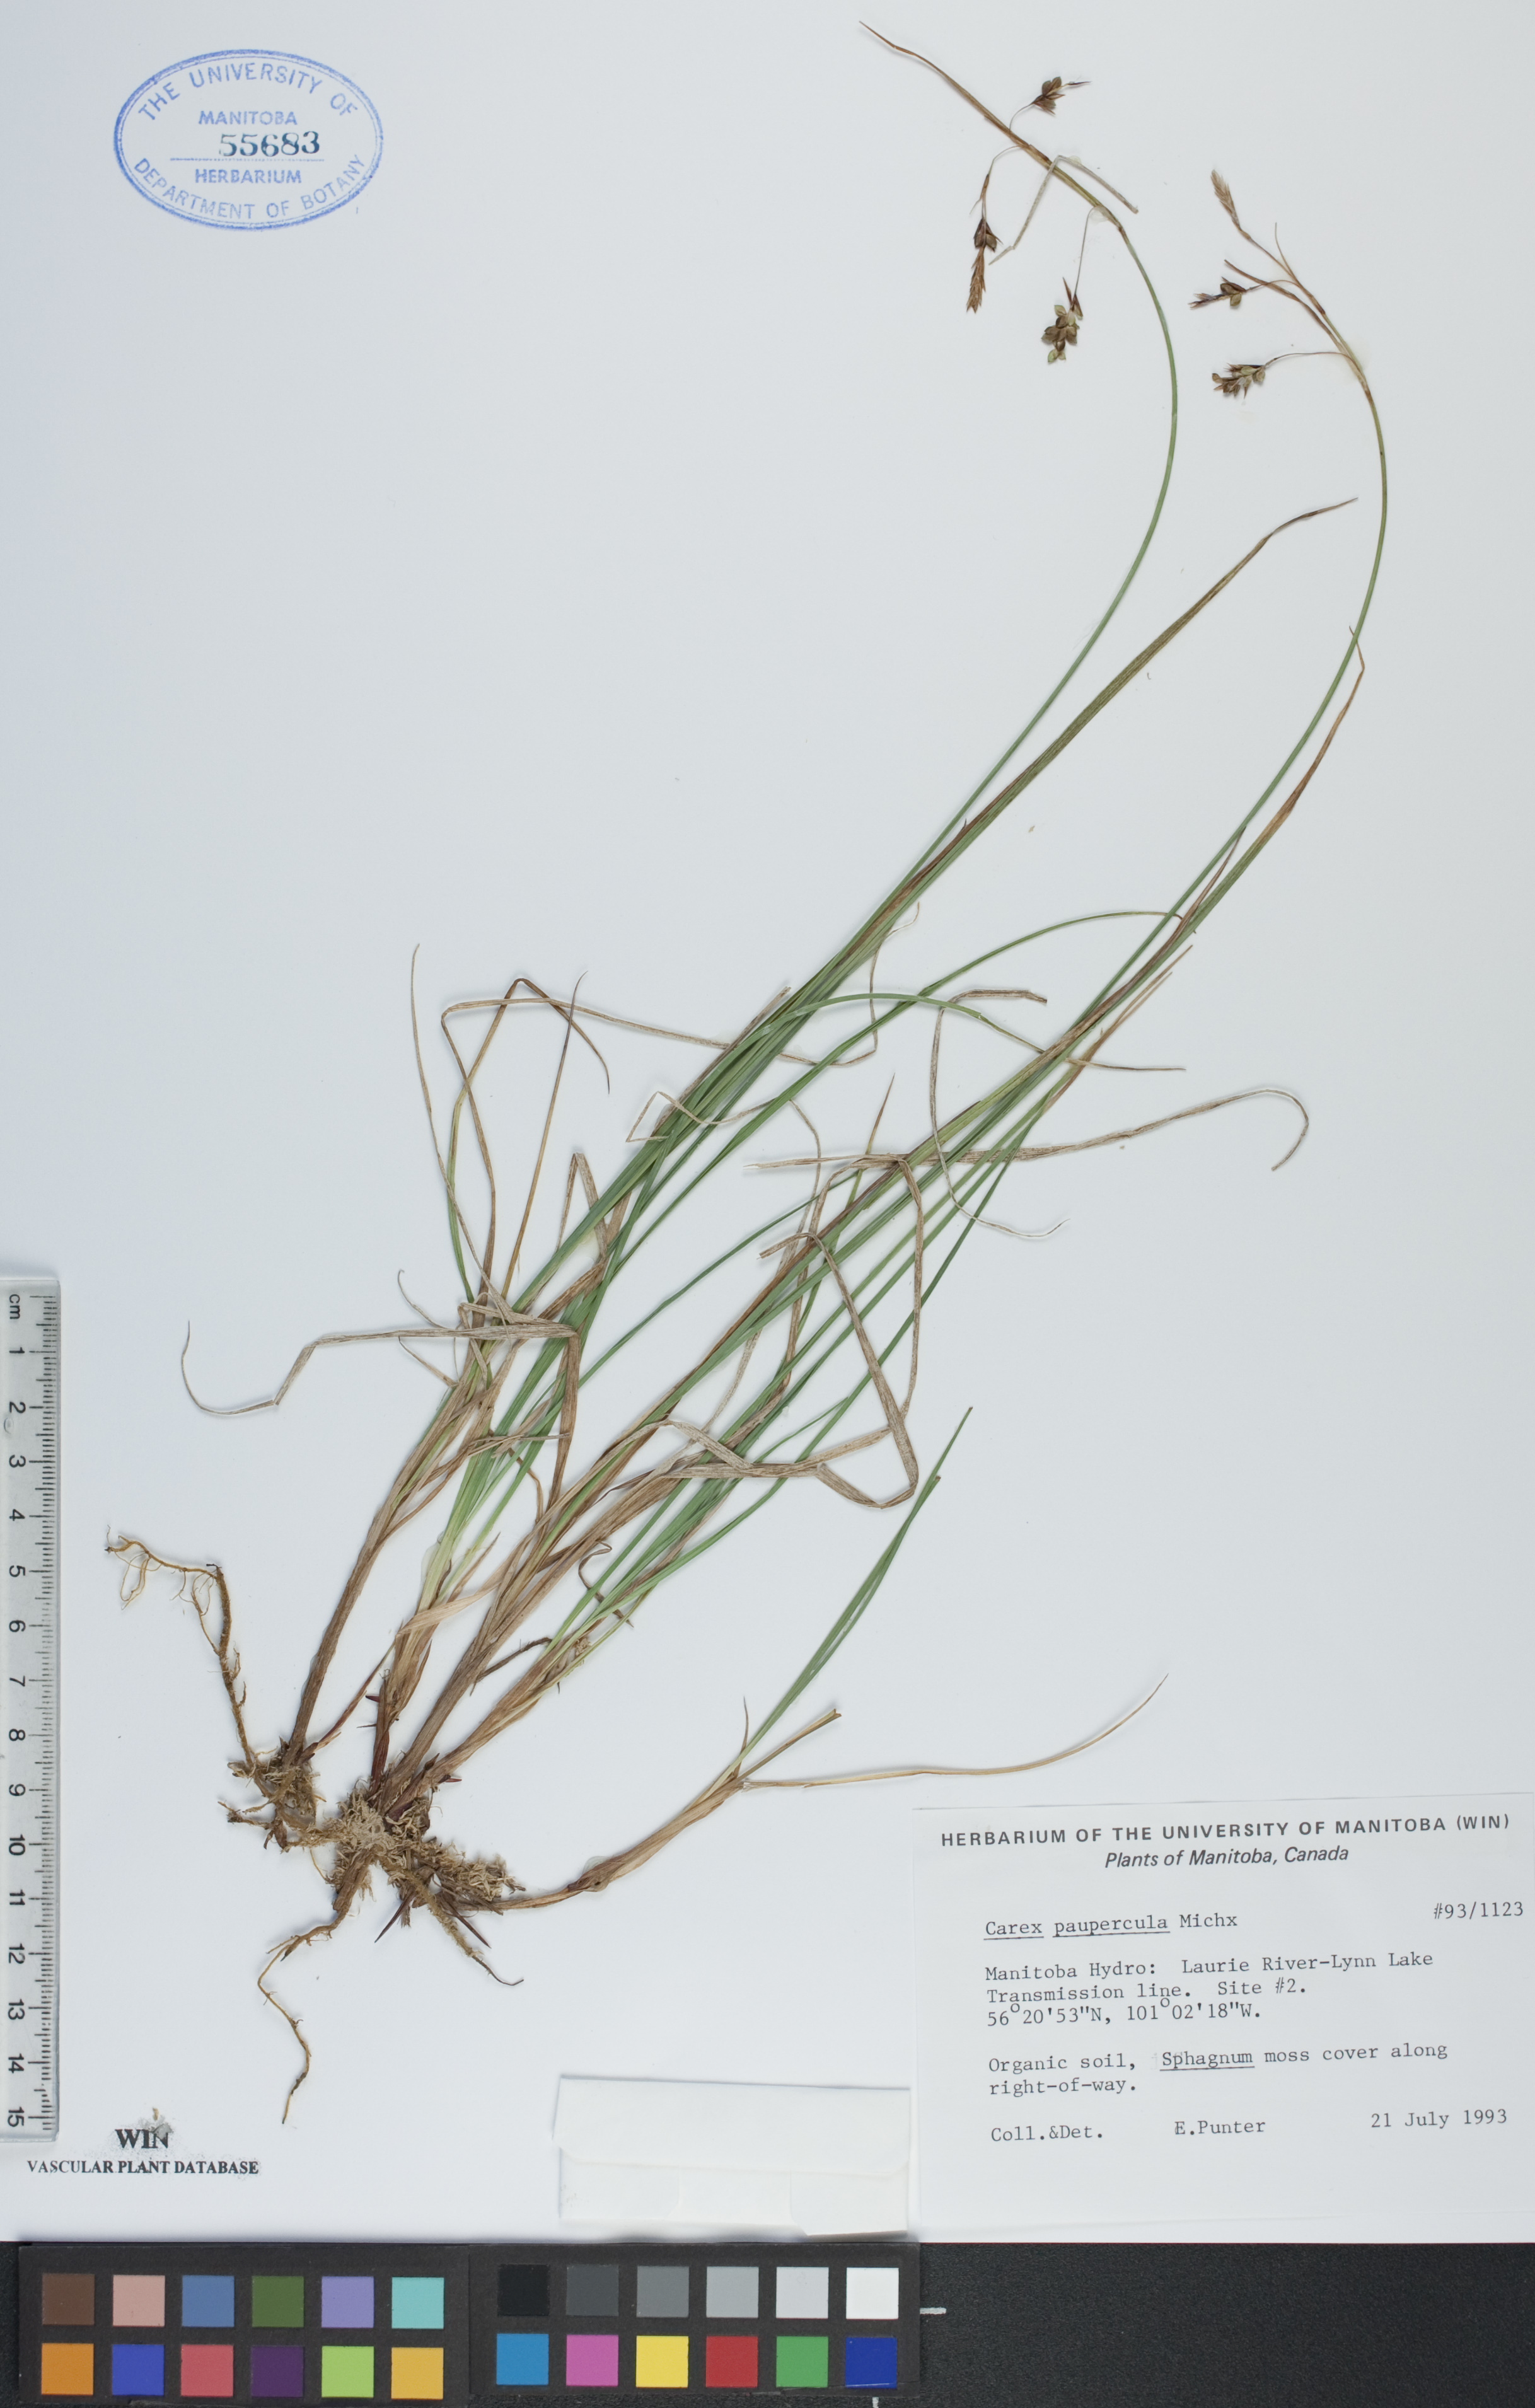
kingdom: Plantae
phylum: Tracheophyta
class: Liliopsida
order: Poales
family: Cyperaceae
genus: Carex
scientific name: Carex magellanica
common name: Bog sedge
